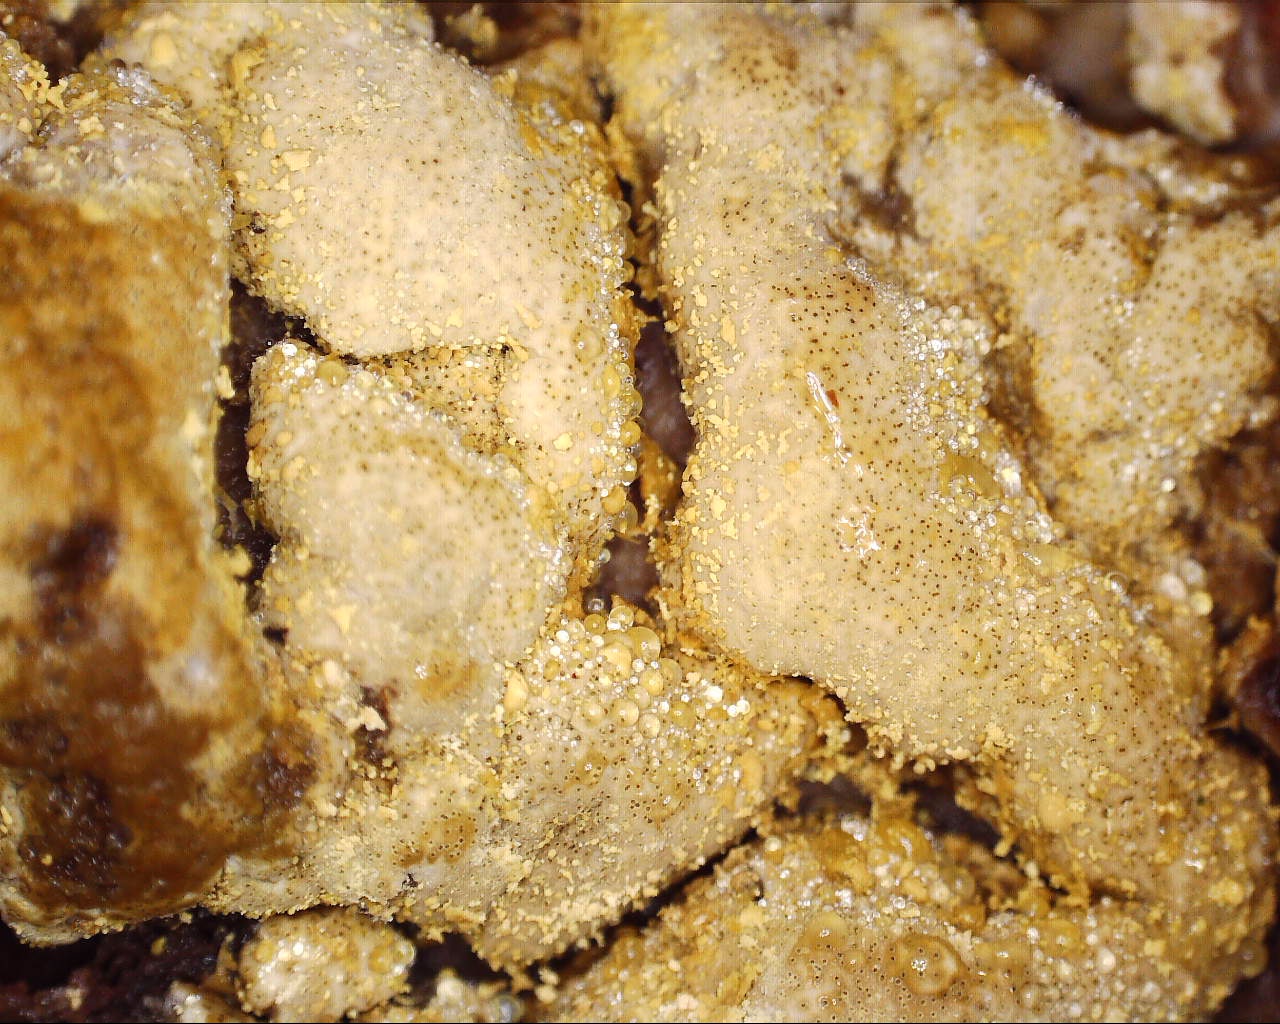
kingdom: Fungi
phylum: Ascomycota
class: Sordariomycetes
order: Hypocreales
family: Hypocreaceae
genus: Trichoderma
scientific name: Trichoderma pulvinatum
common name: snyltende kødkerne
